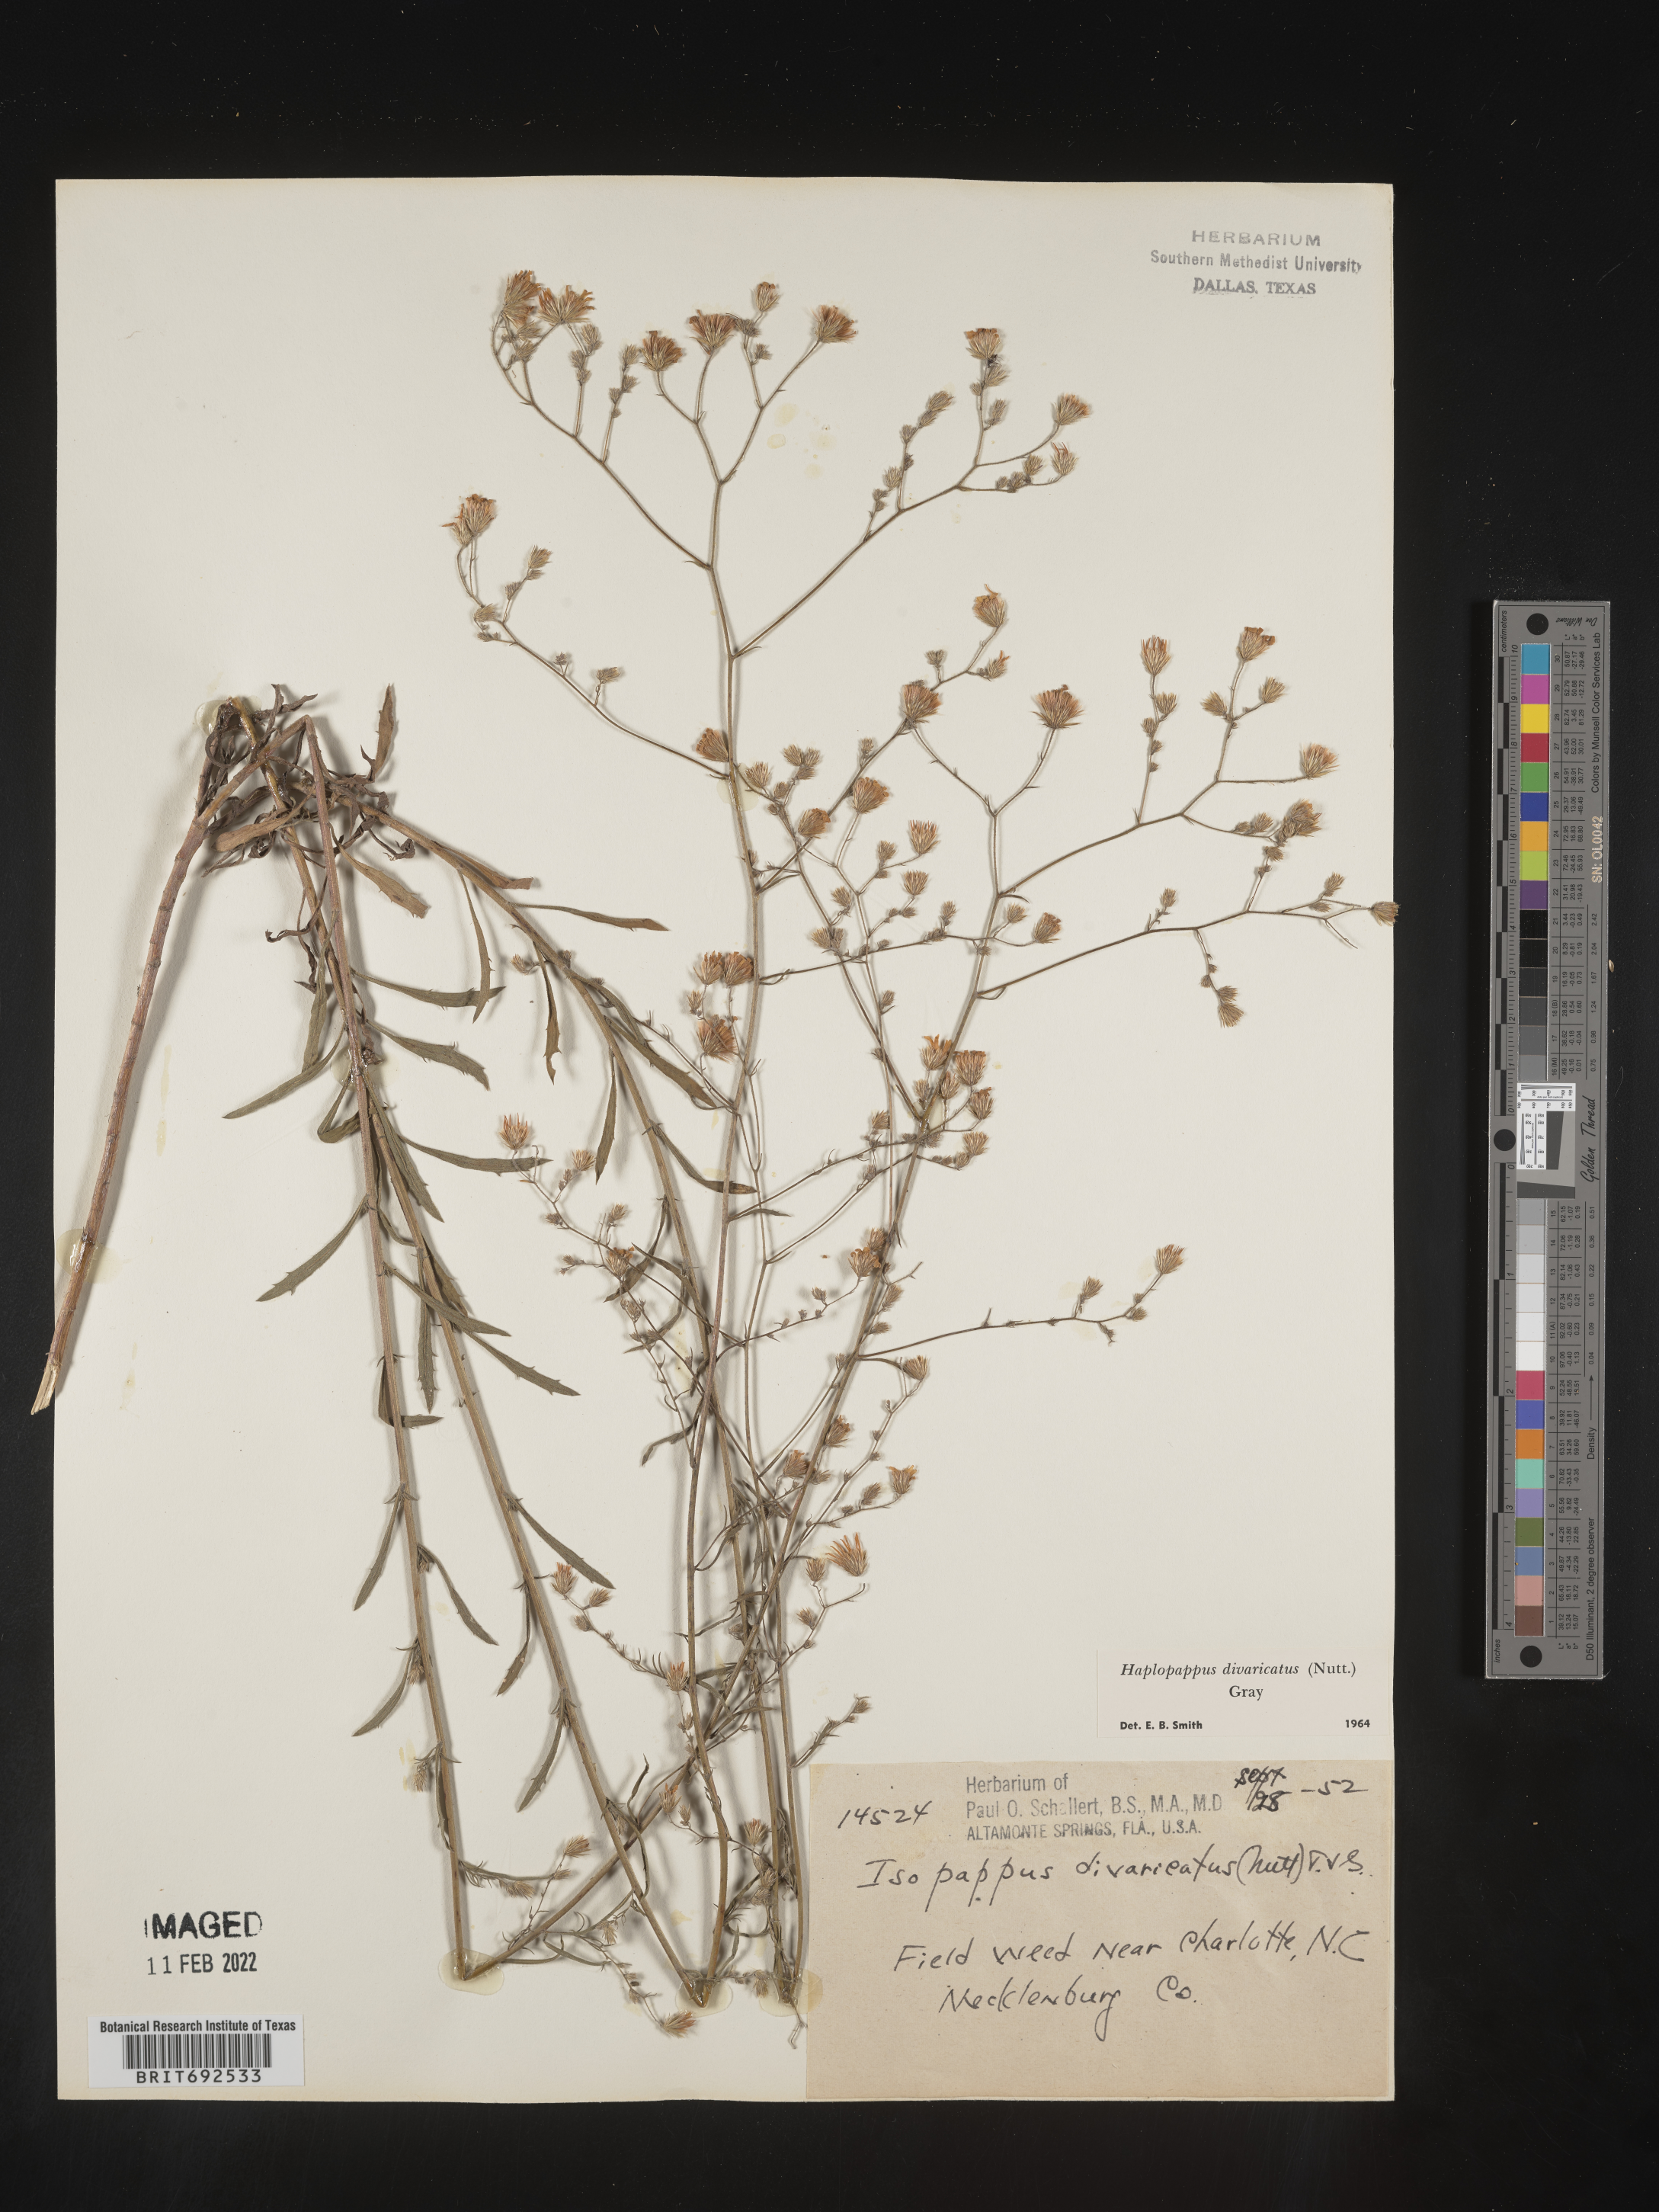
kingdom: Plantae
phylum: Tracheophyta
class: Magnoliopsida
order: Asterales
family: Asteraceae
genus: Croptilon
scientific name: Croptilon divaricatum
